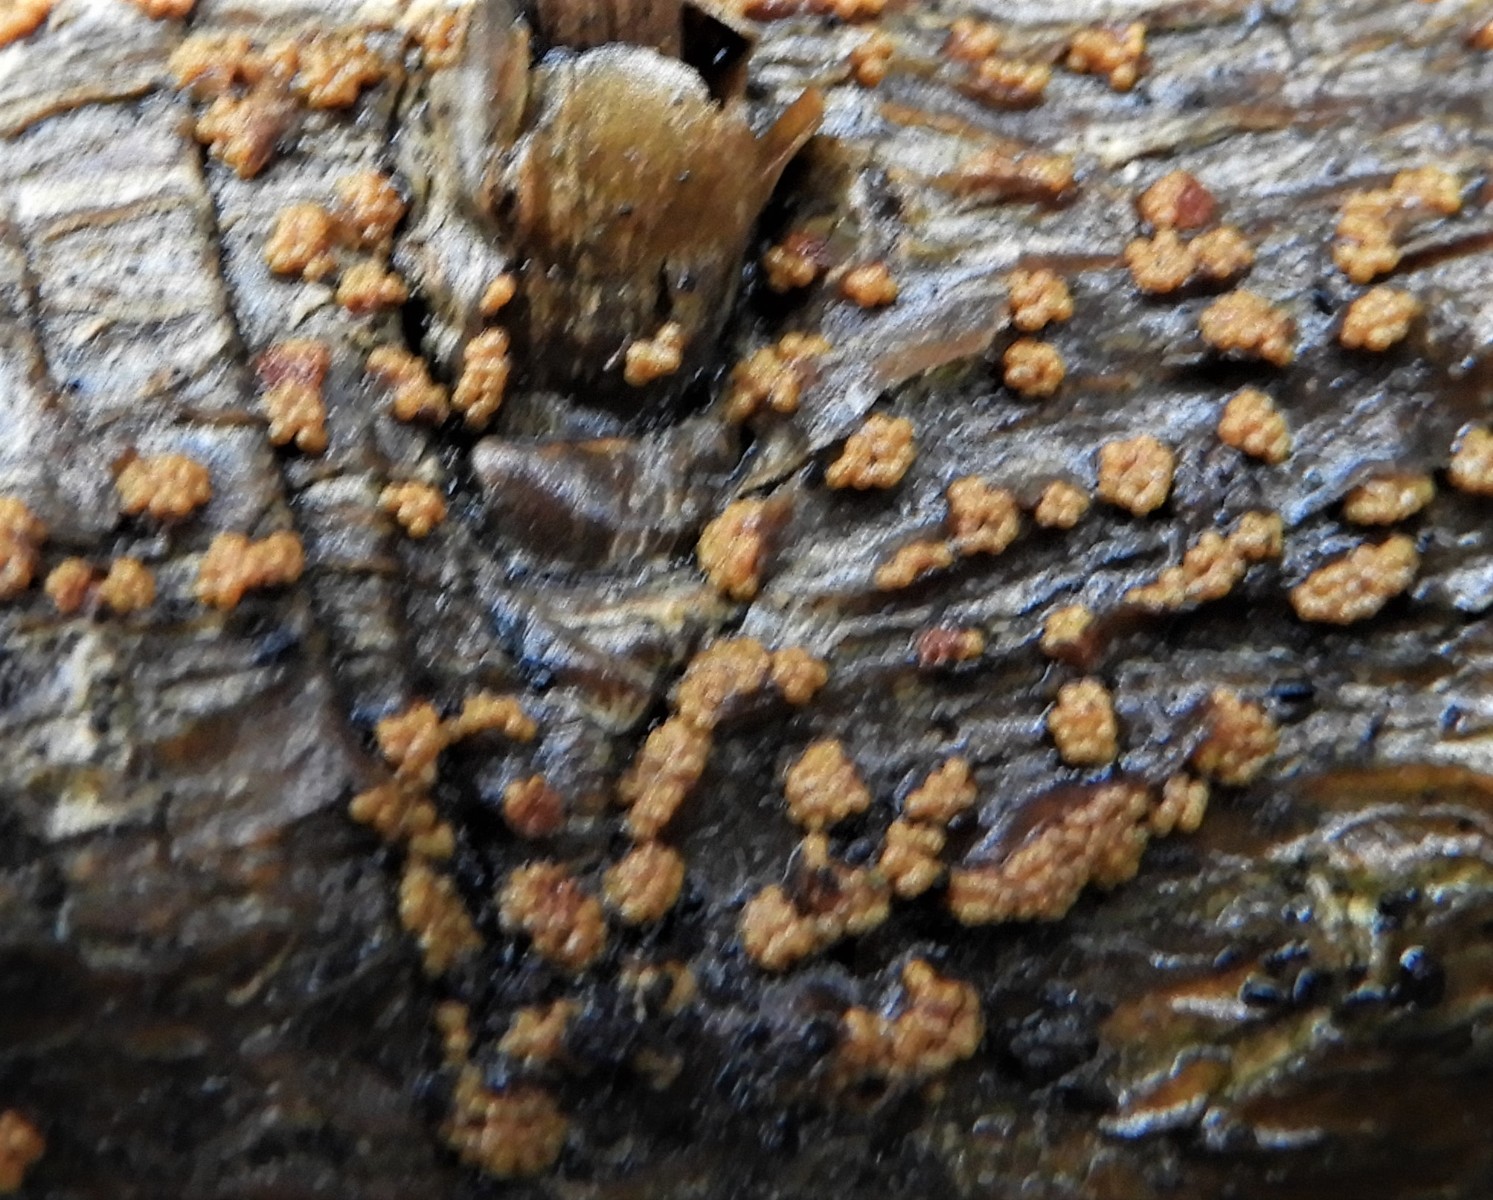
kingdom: Fungi
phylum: Ascomycota
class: Sordariomycetes
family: Thyridiaceae
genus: Thyronectria
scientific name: Thyronectria sinopica
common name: vedbend-cinnobersvamp
